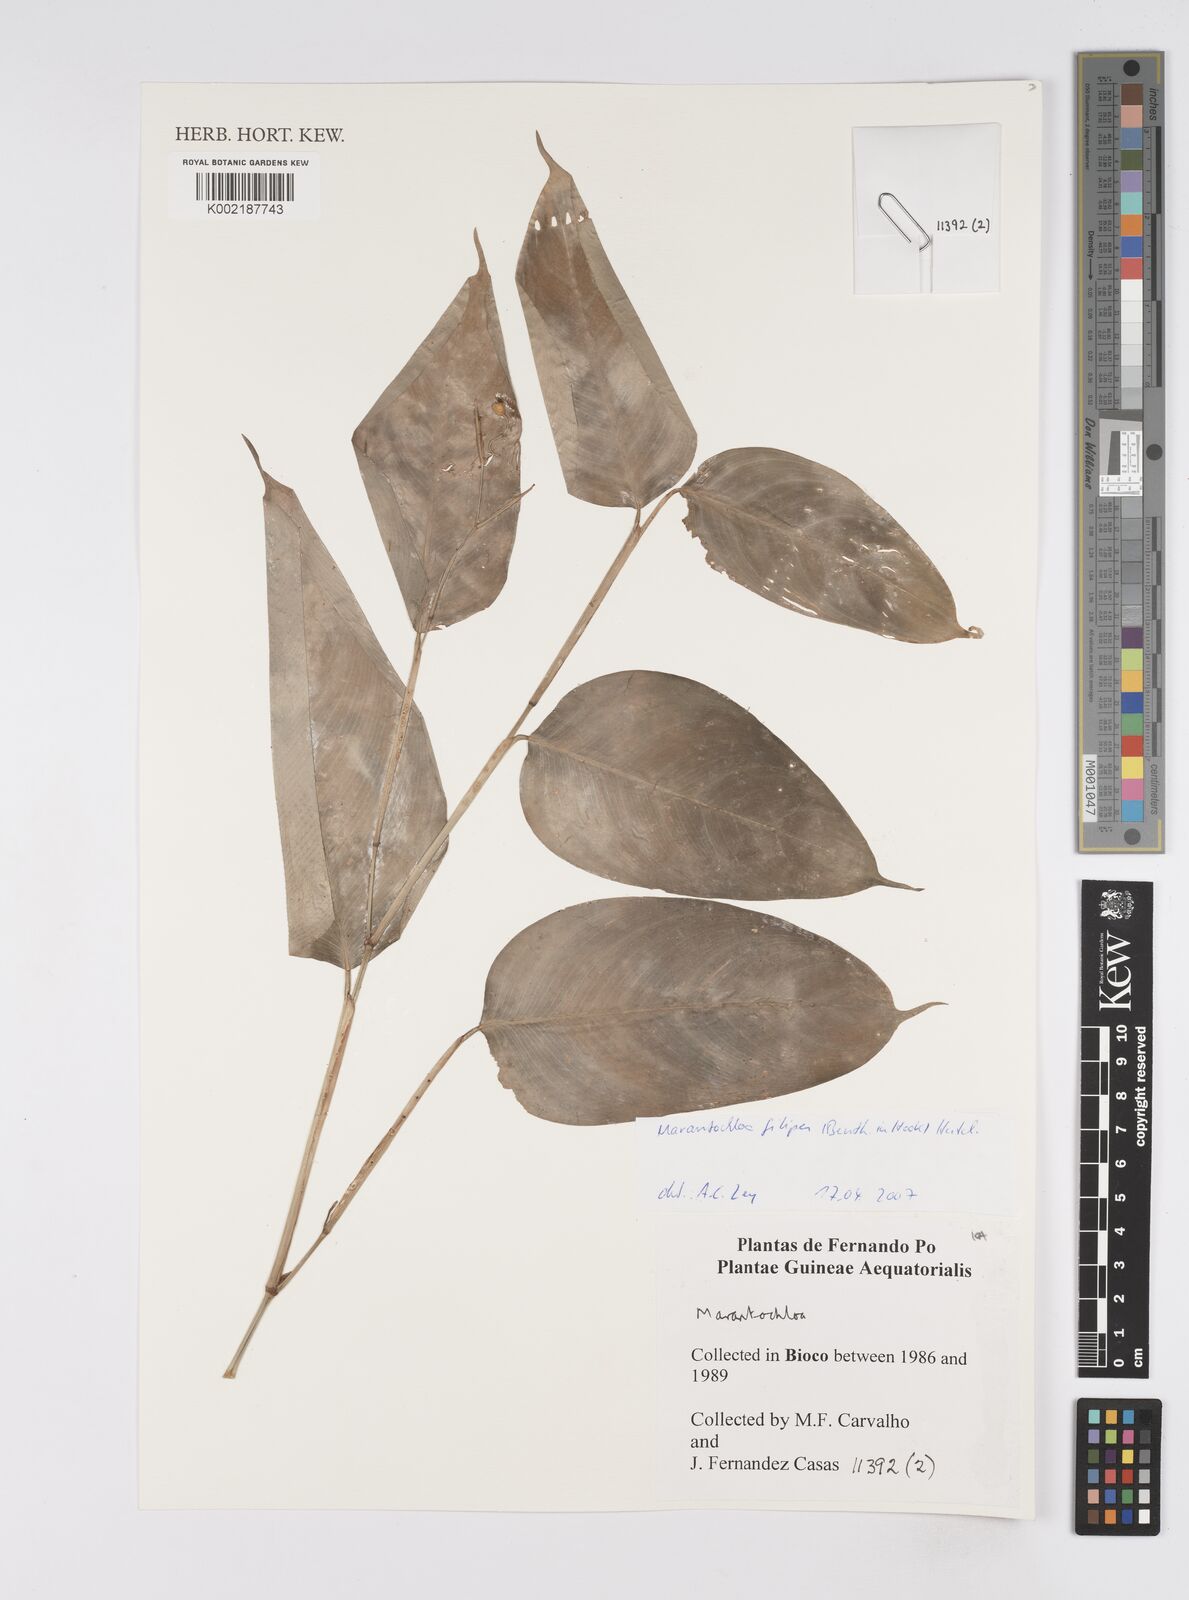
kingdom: Plantae
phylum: Tracheophyta
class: Liliopsida
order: Zingiberales
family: Marantaceae
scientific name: Marantaceae
